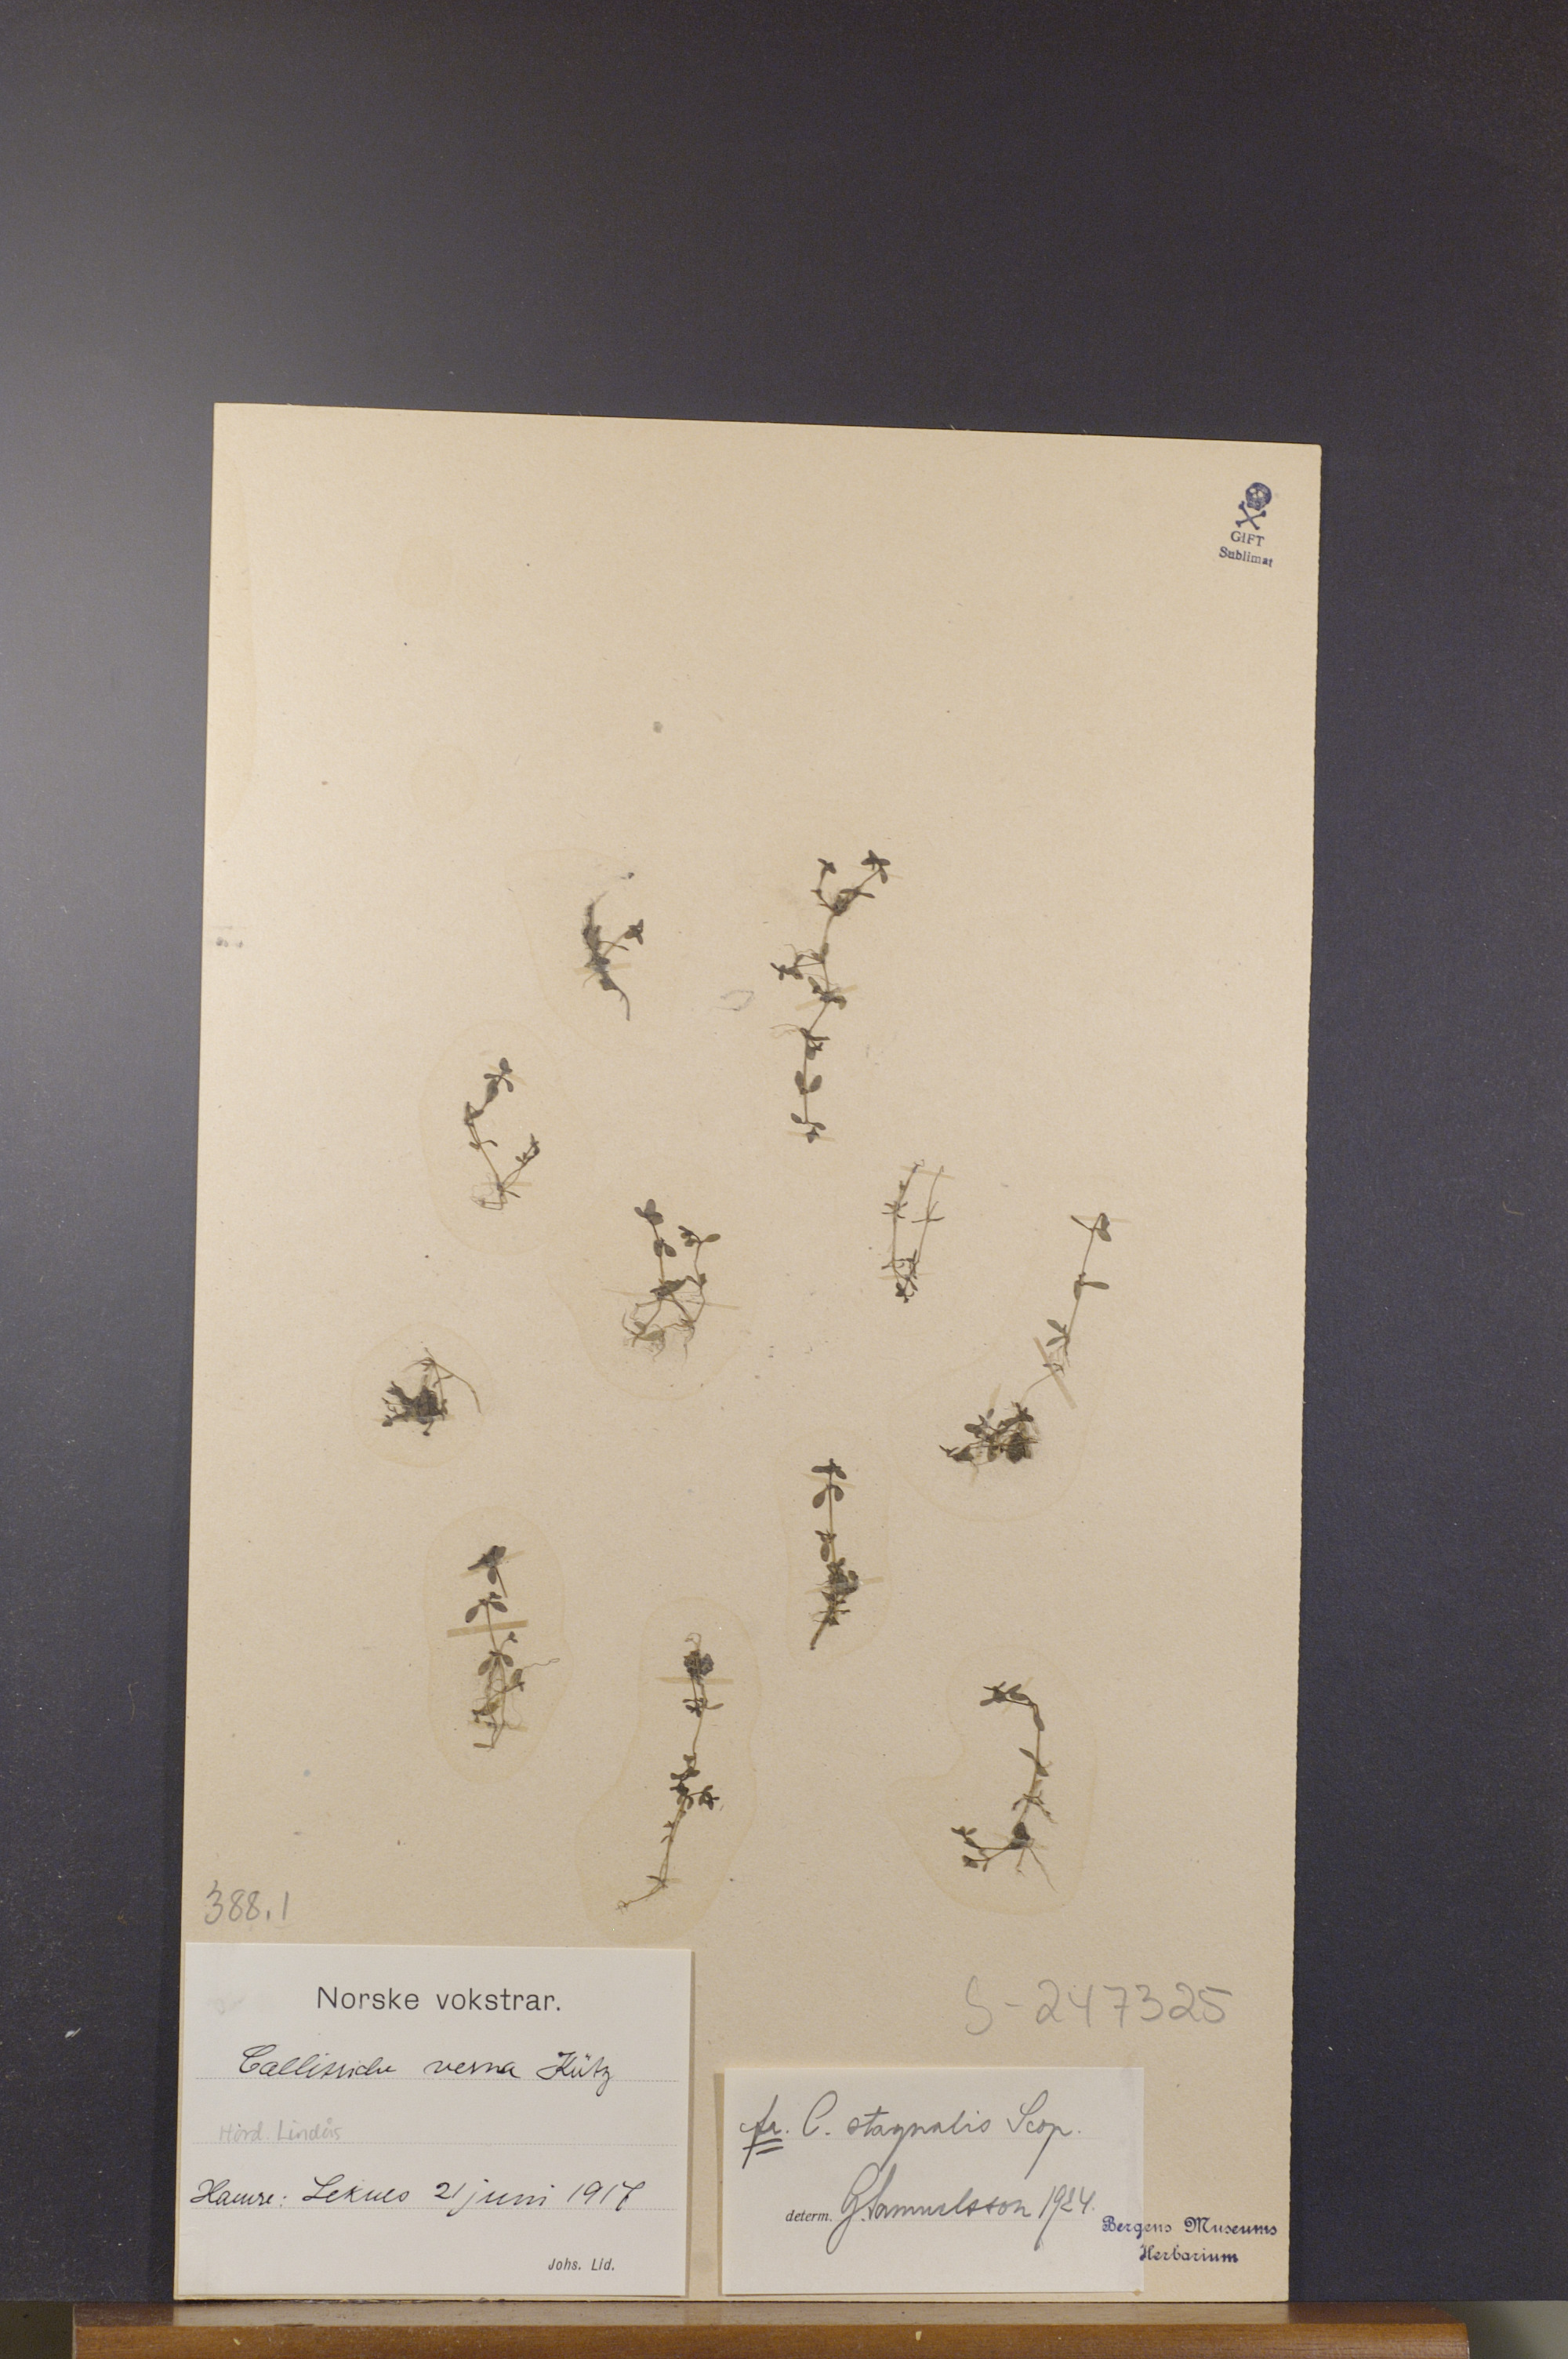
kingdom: Plantae
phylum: Tracheophyta
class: Magnoliopsida
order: Lamiales
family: Plantaginaceae
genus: Callitriche
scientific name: Callitriche stagnalis
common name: Common water-starwort
